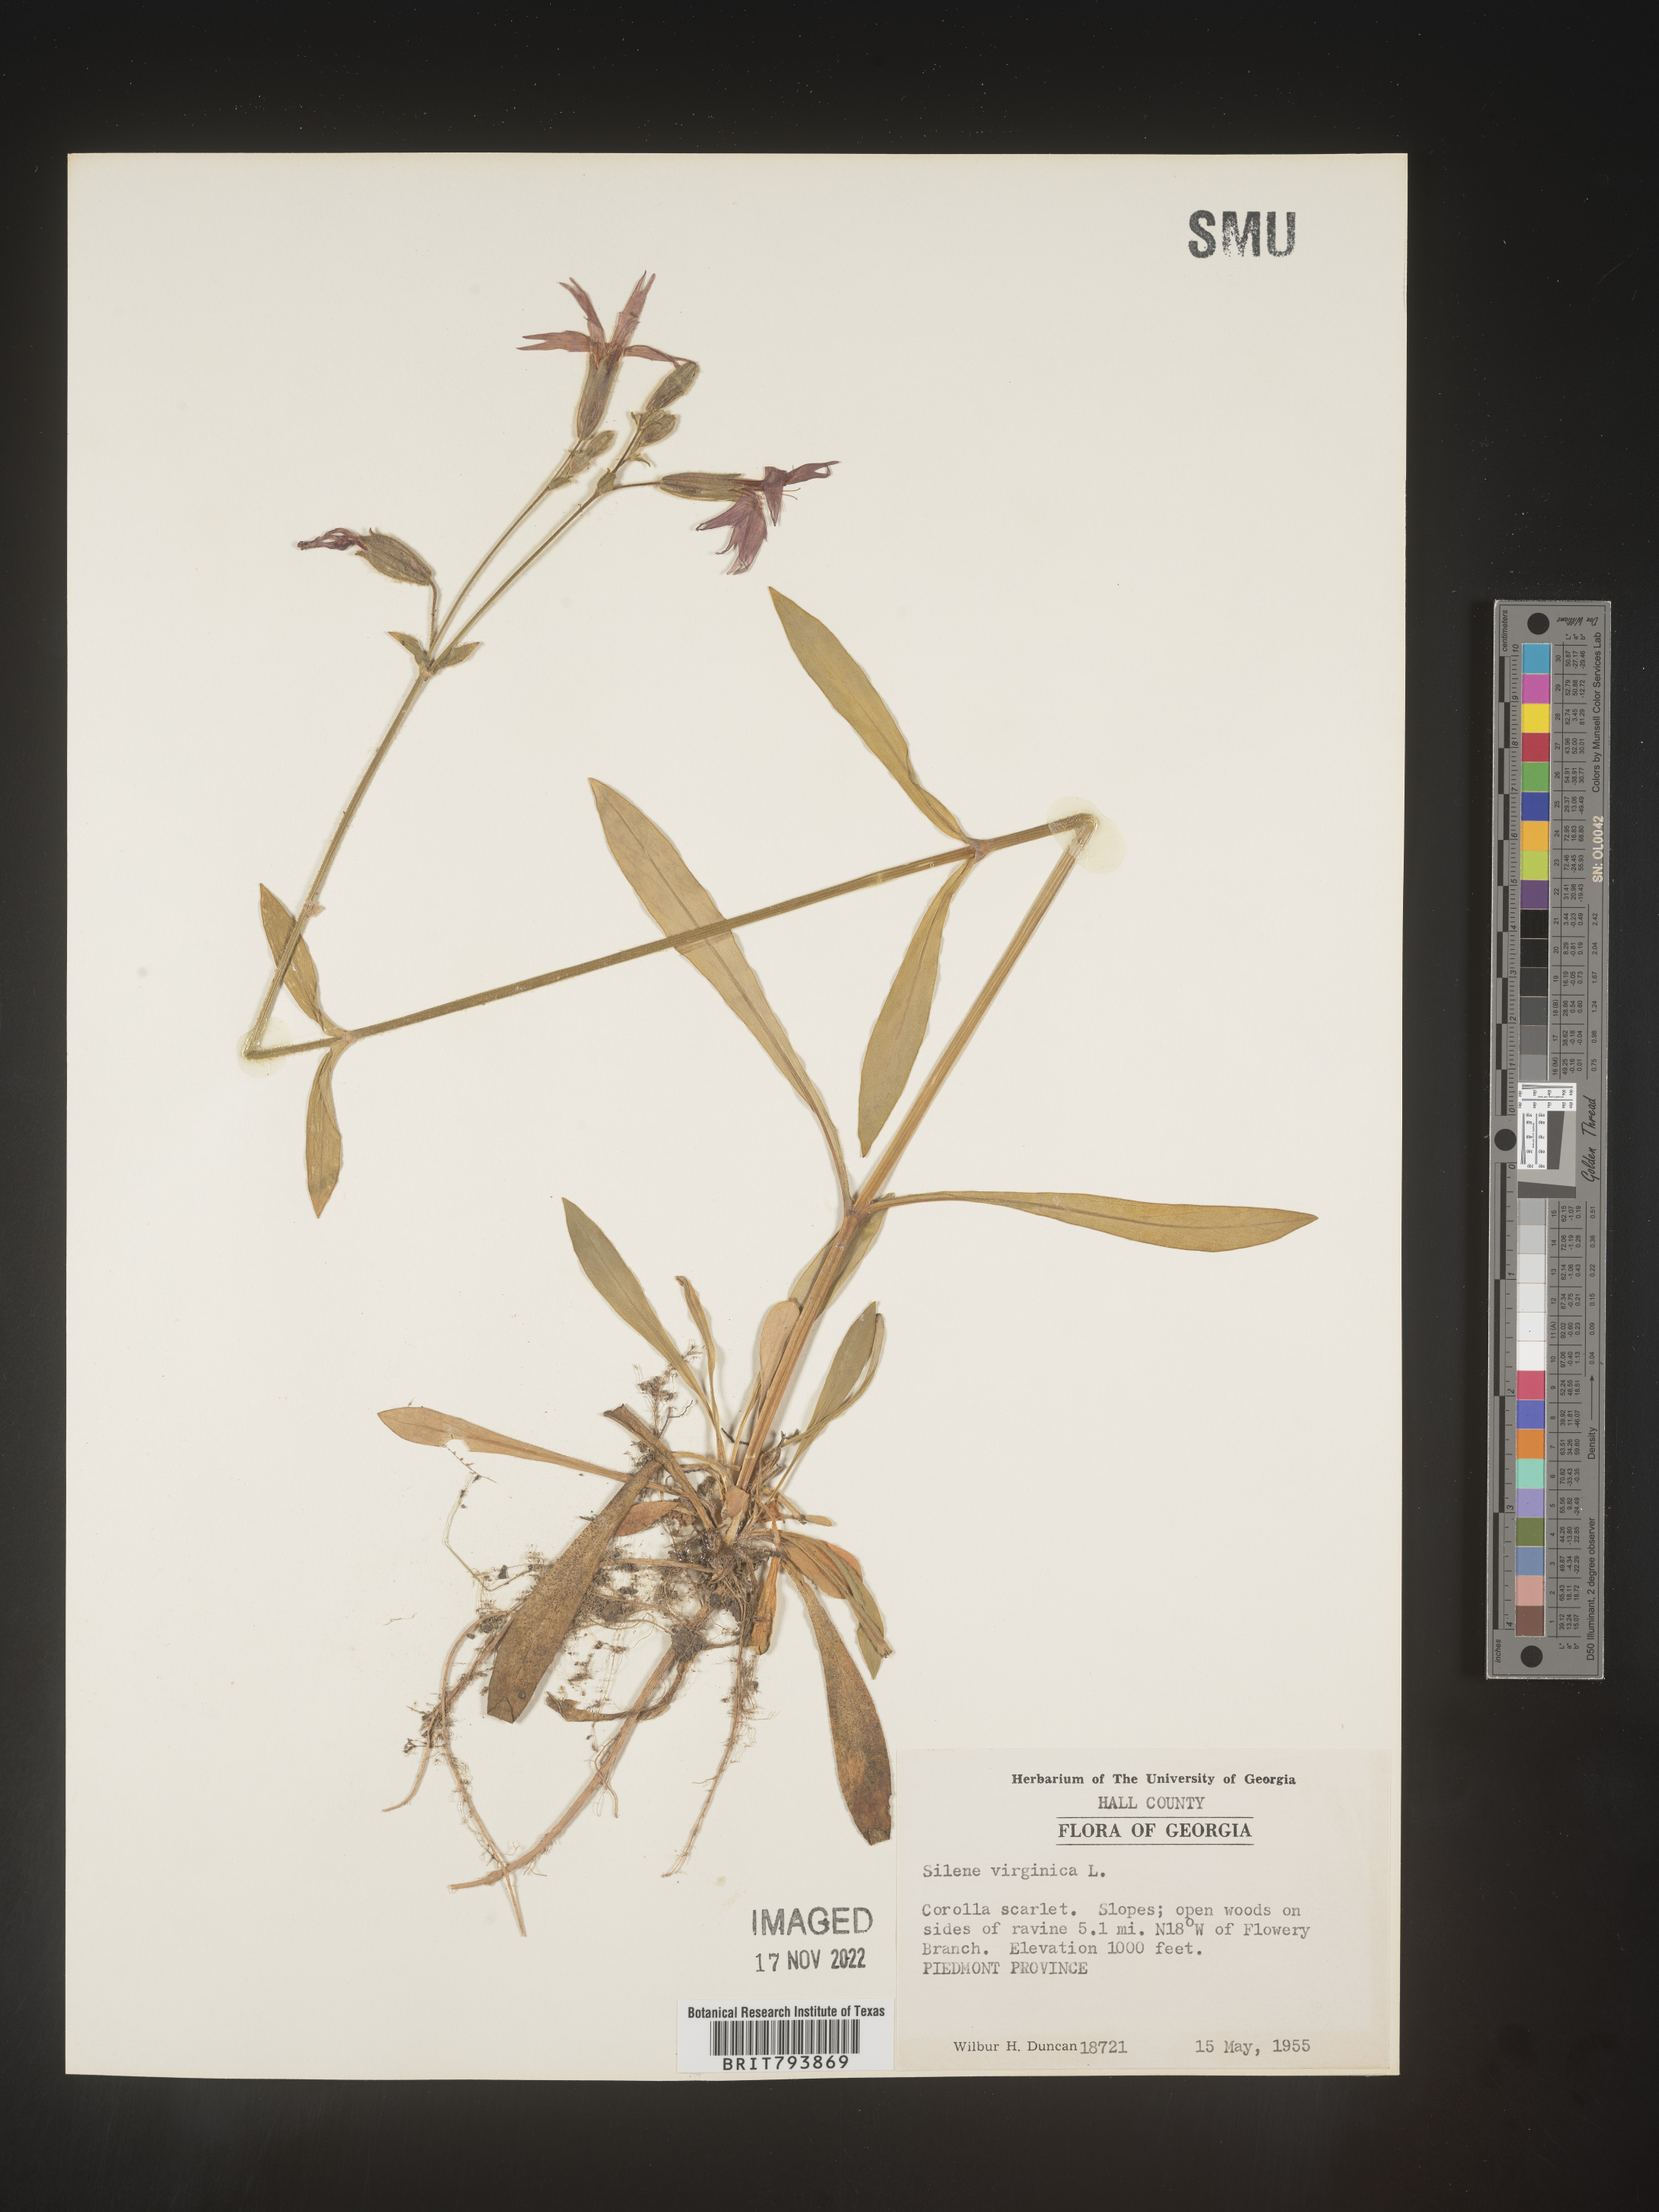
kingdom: Plantae
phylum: Tracheophyta
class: Magnoliopsida
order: Caryophyllales
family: Caryophyllaceae
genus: Silene
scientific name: Silene virginica
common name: Fire-pink
